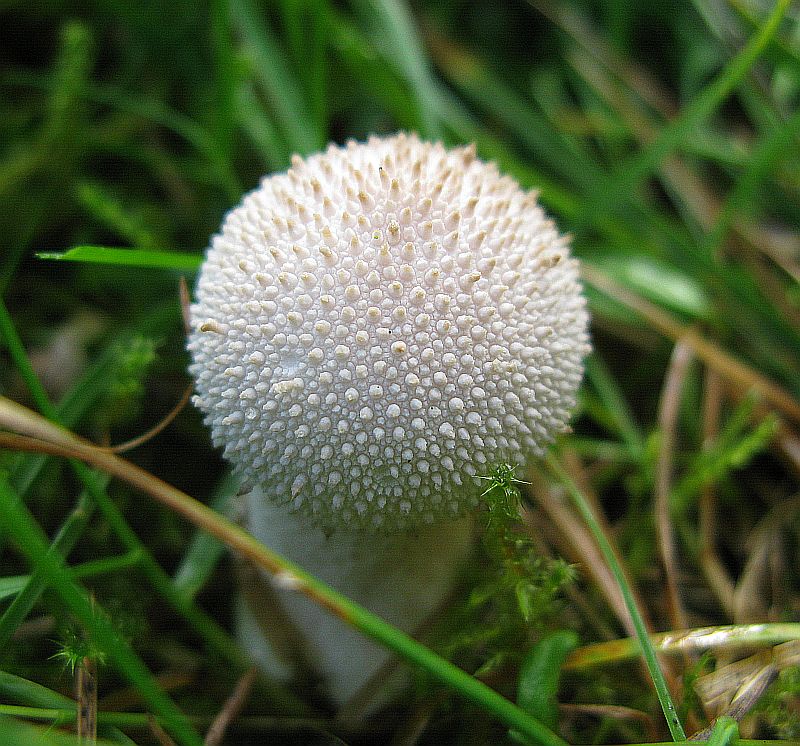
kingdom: Fungi
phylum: Basidiomycota
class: Agaricomycetes
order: Agaricales
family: Lycoperdaceae
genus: Lycoperdon
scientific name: Lycoperdon perlatum
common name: krystal-støvbold
